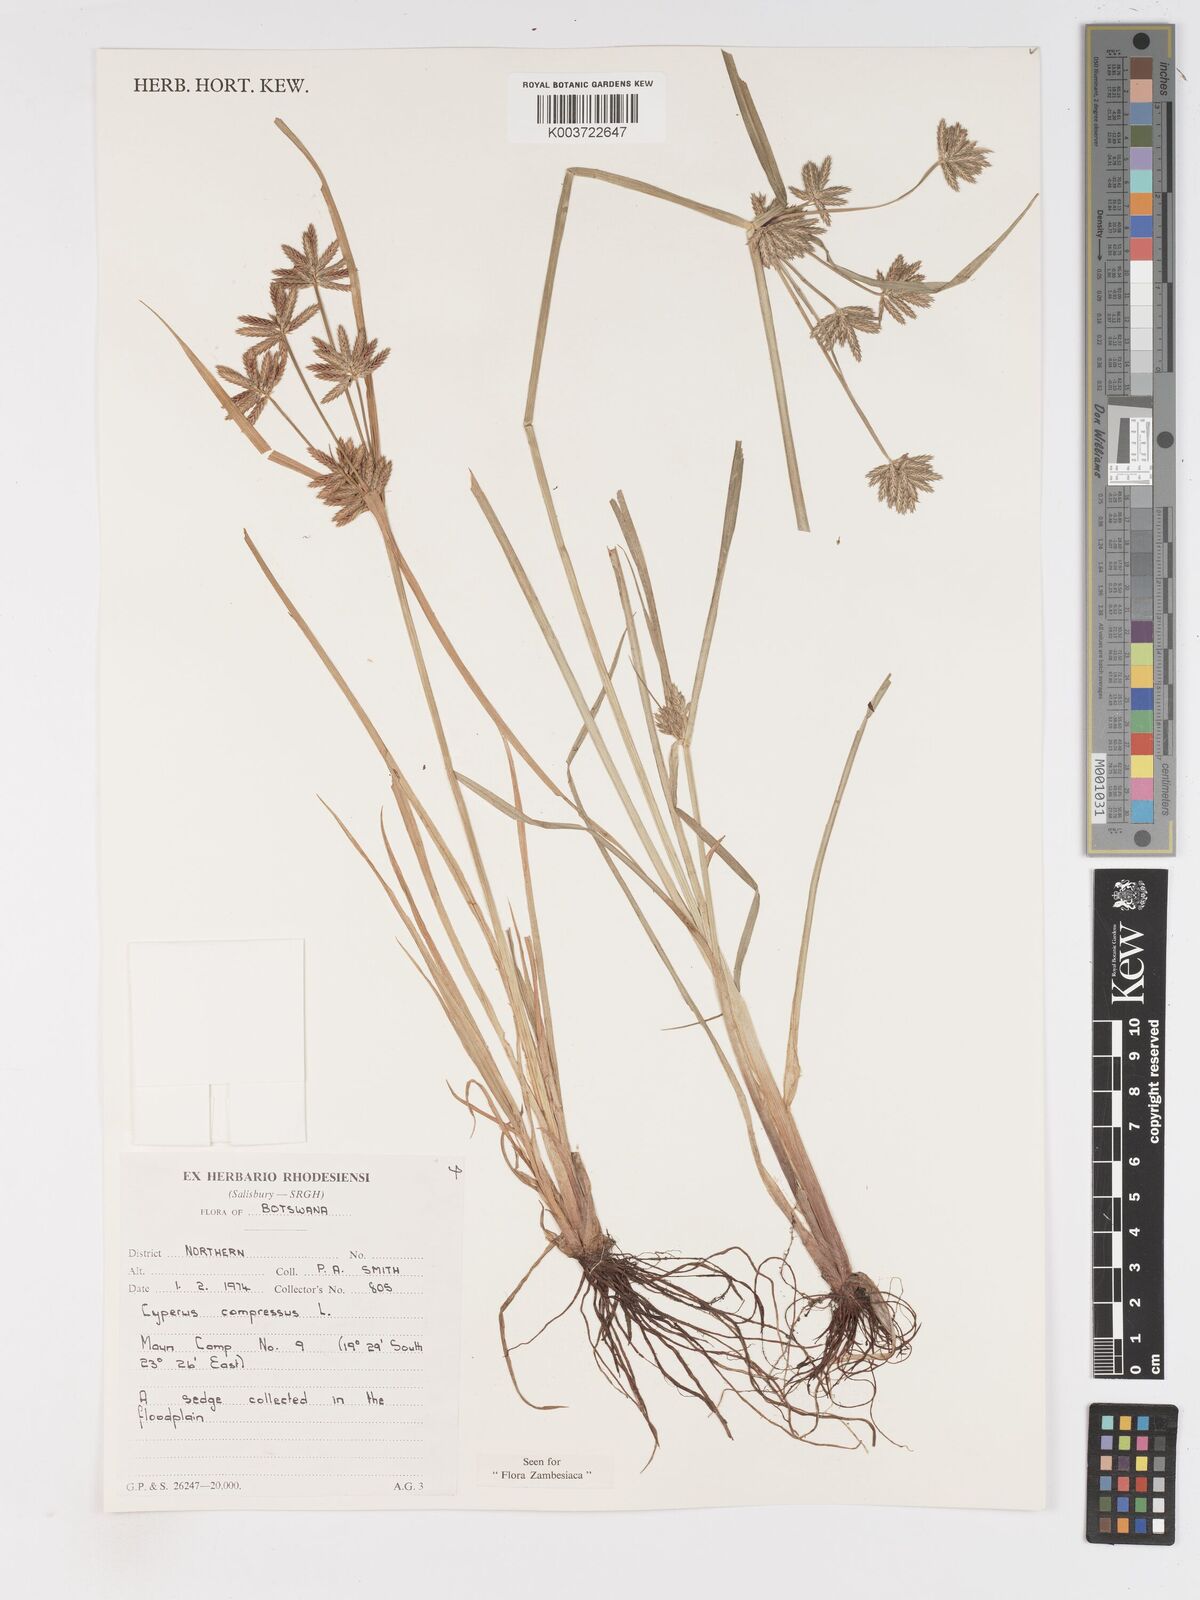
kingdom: Plantae
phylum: Tracheophyta
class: Liliopsida
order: Poales
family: Cyperaceae
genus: Cyperus
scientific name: Cyperus compressus
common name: Poorland flatsedge
